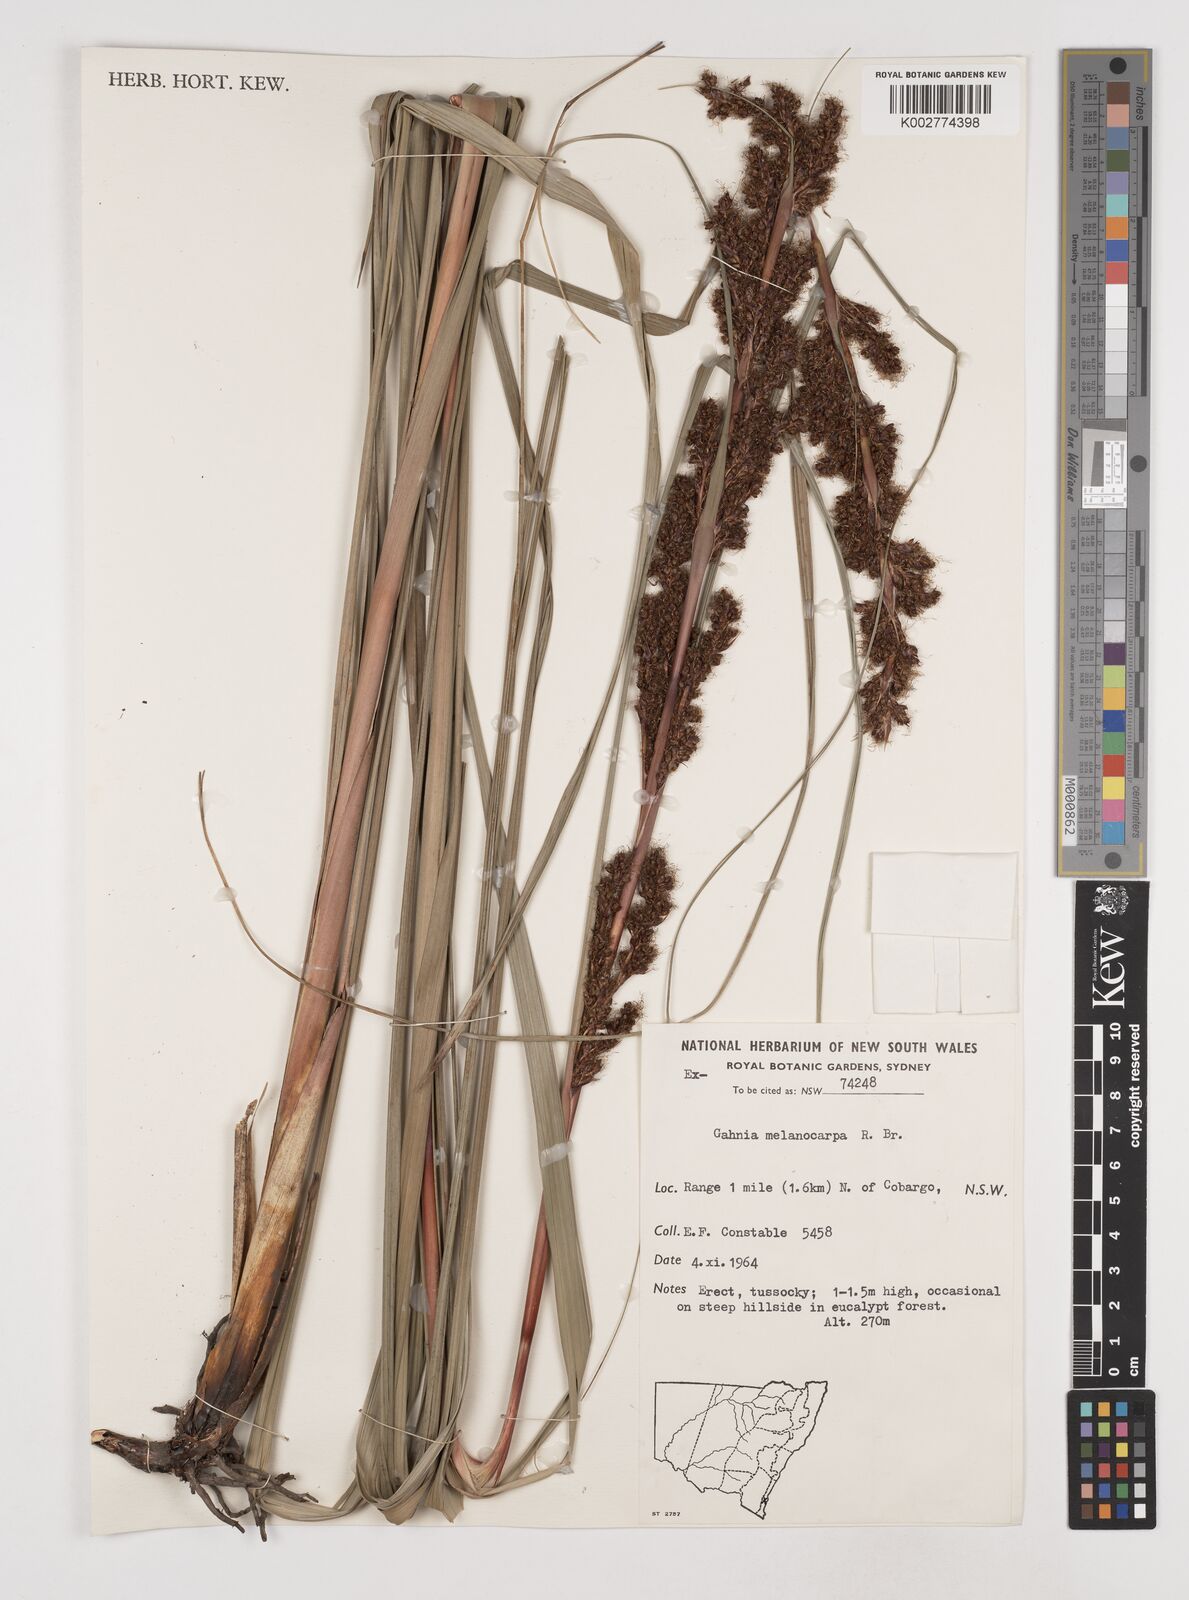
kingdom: Plantae
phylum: Tracheophyta
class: Liliopsida
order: Poales
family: Cyperaceae
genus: Gahnia
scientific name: Gahnia melanocarpa
